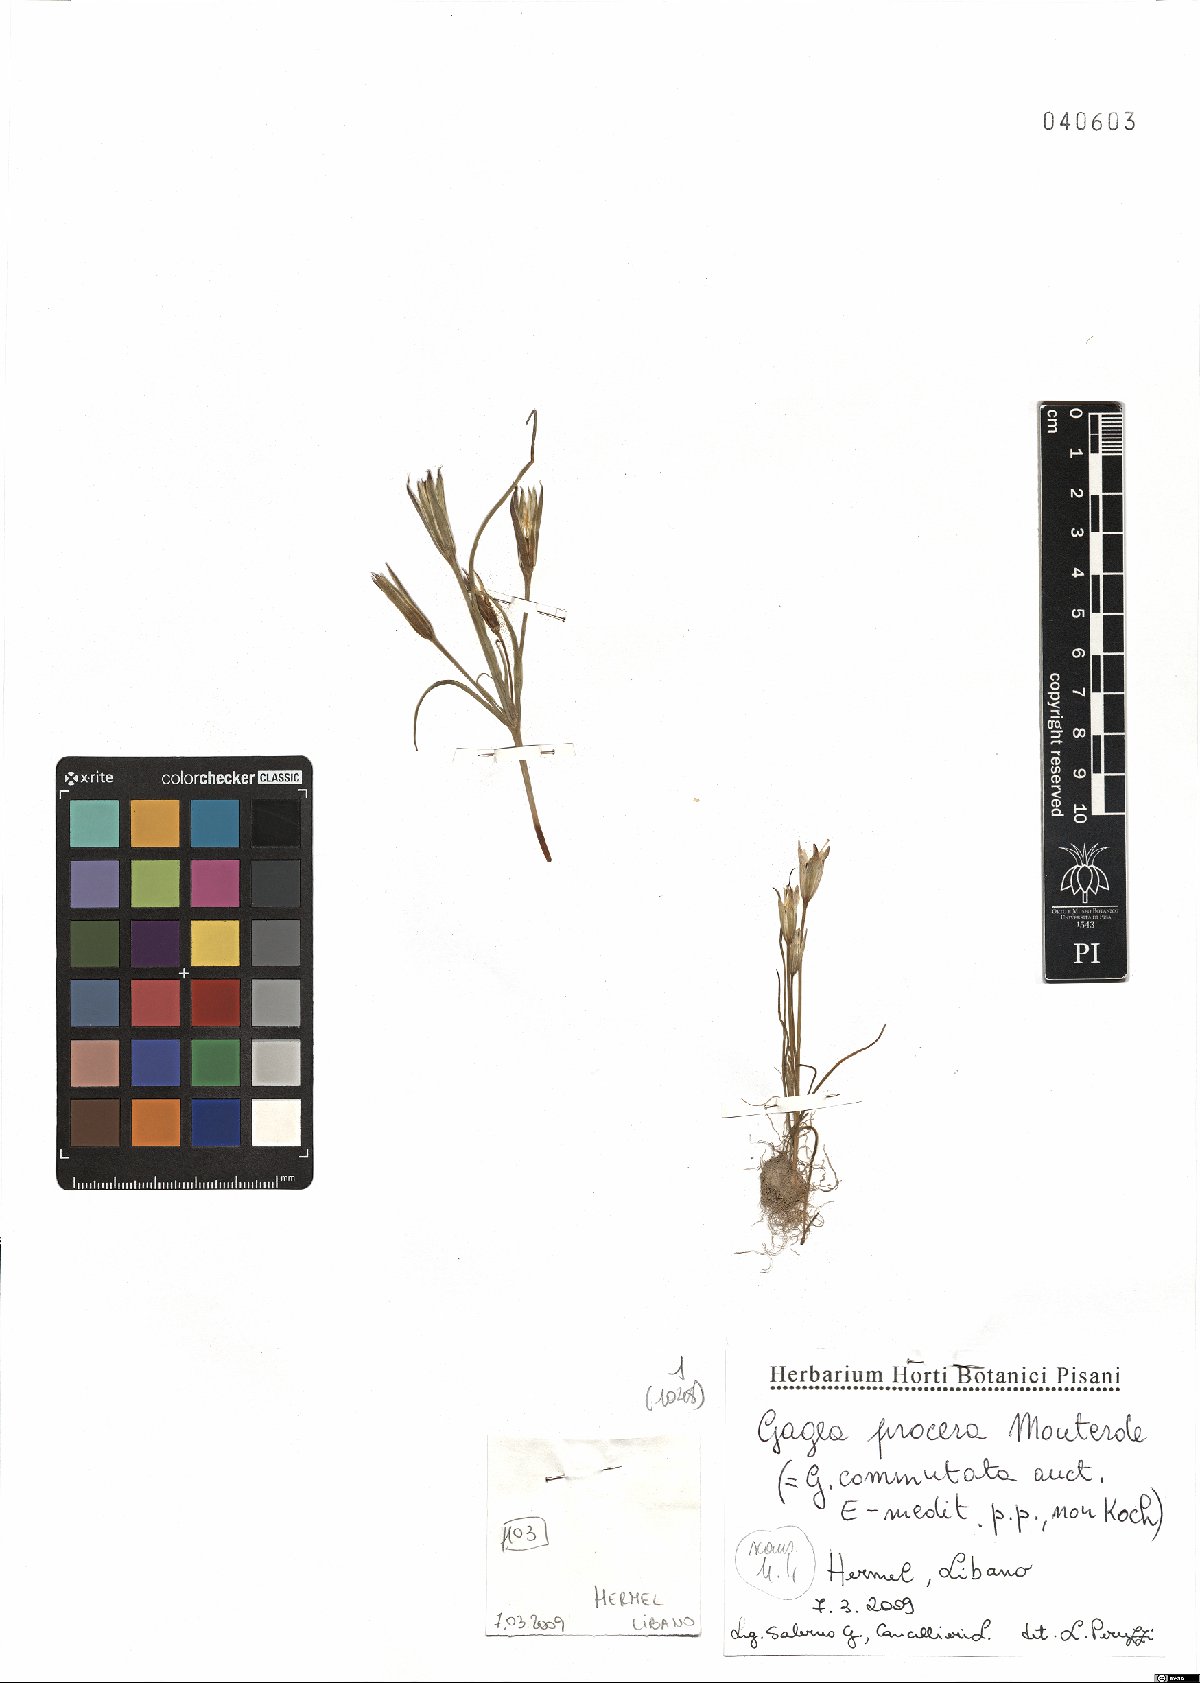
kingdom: Plantae
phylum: Tracheophyta
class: Liliopsida
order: Liliales
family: Liliaceae
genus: Gagea
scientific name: Gagea rigida
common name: Stiff gagea
